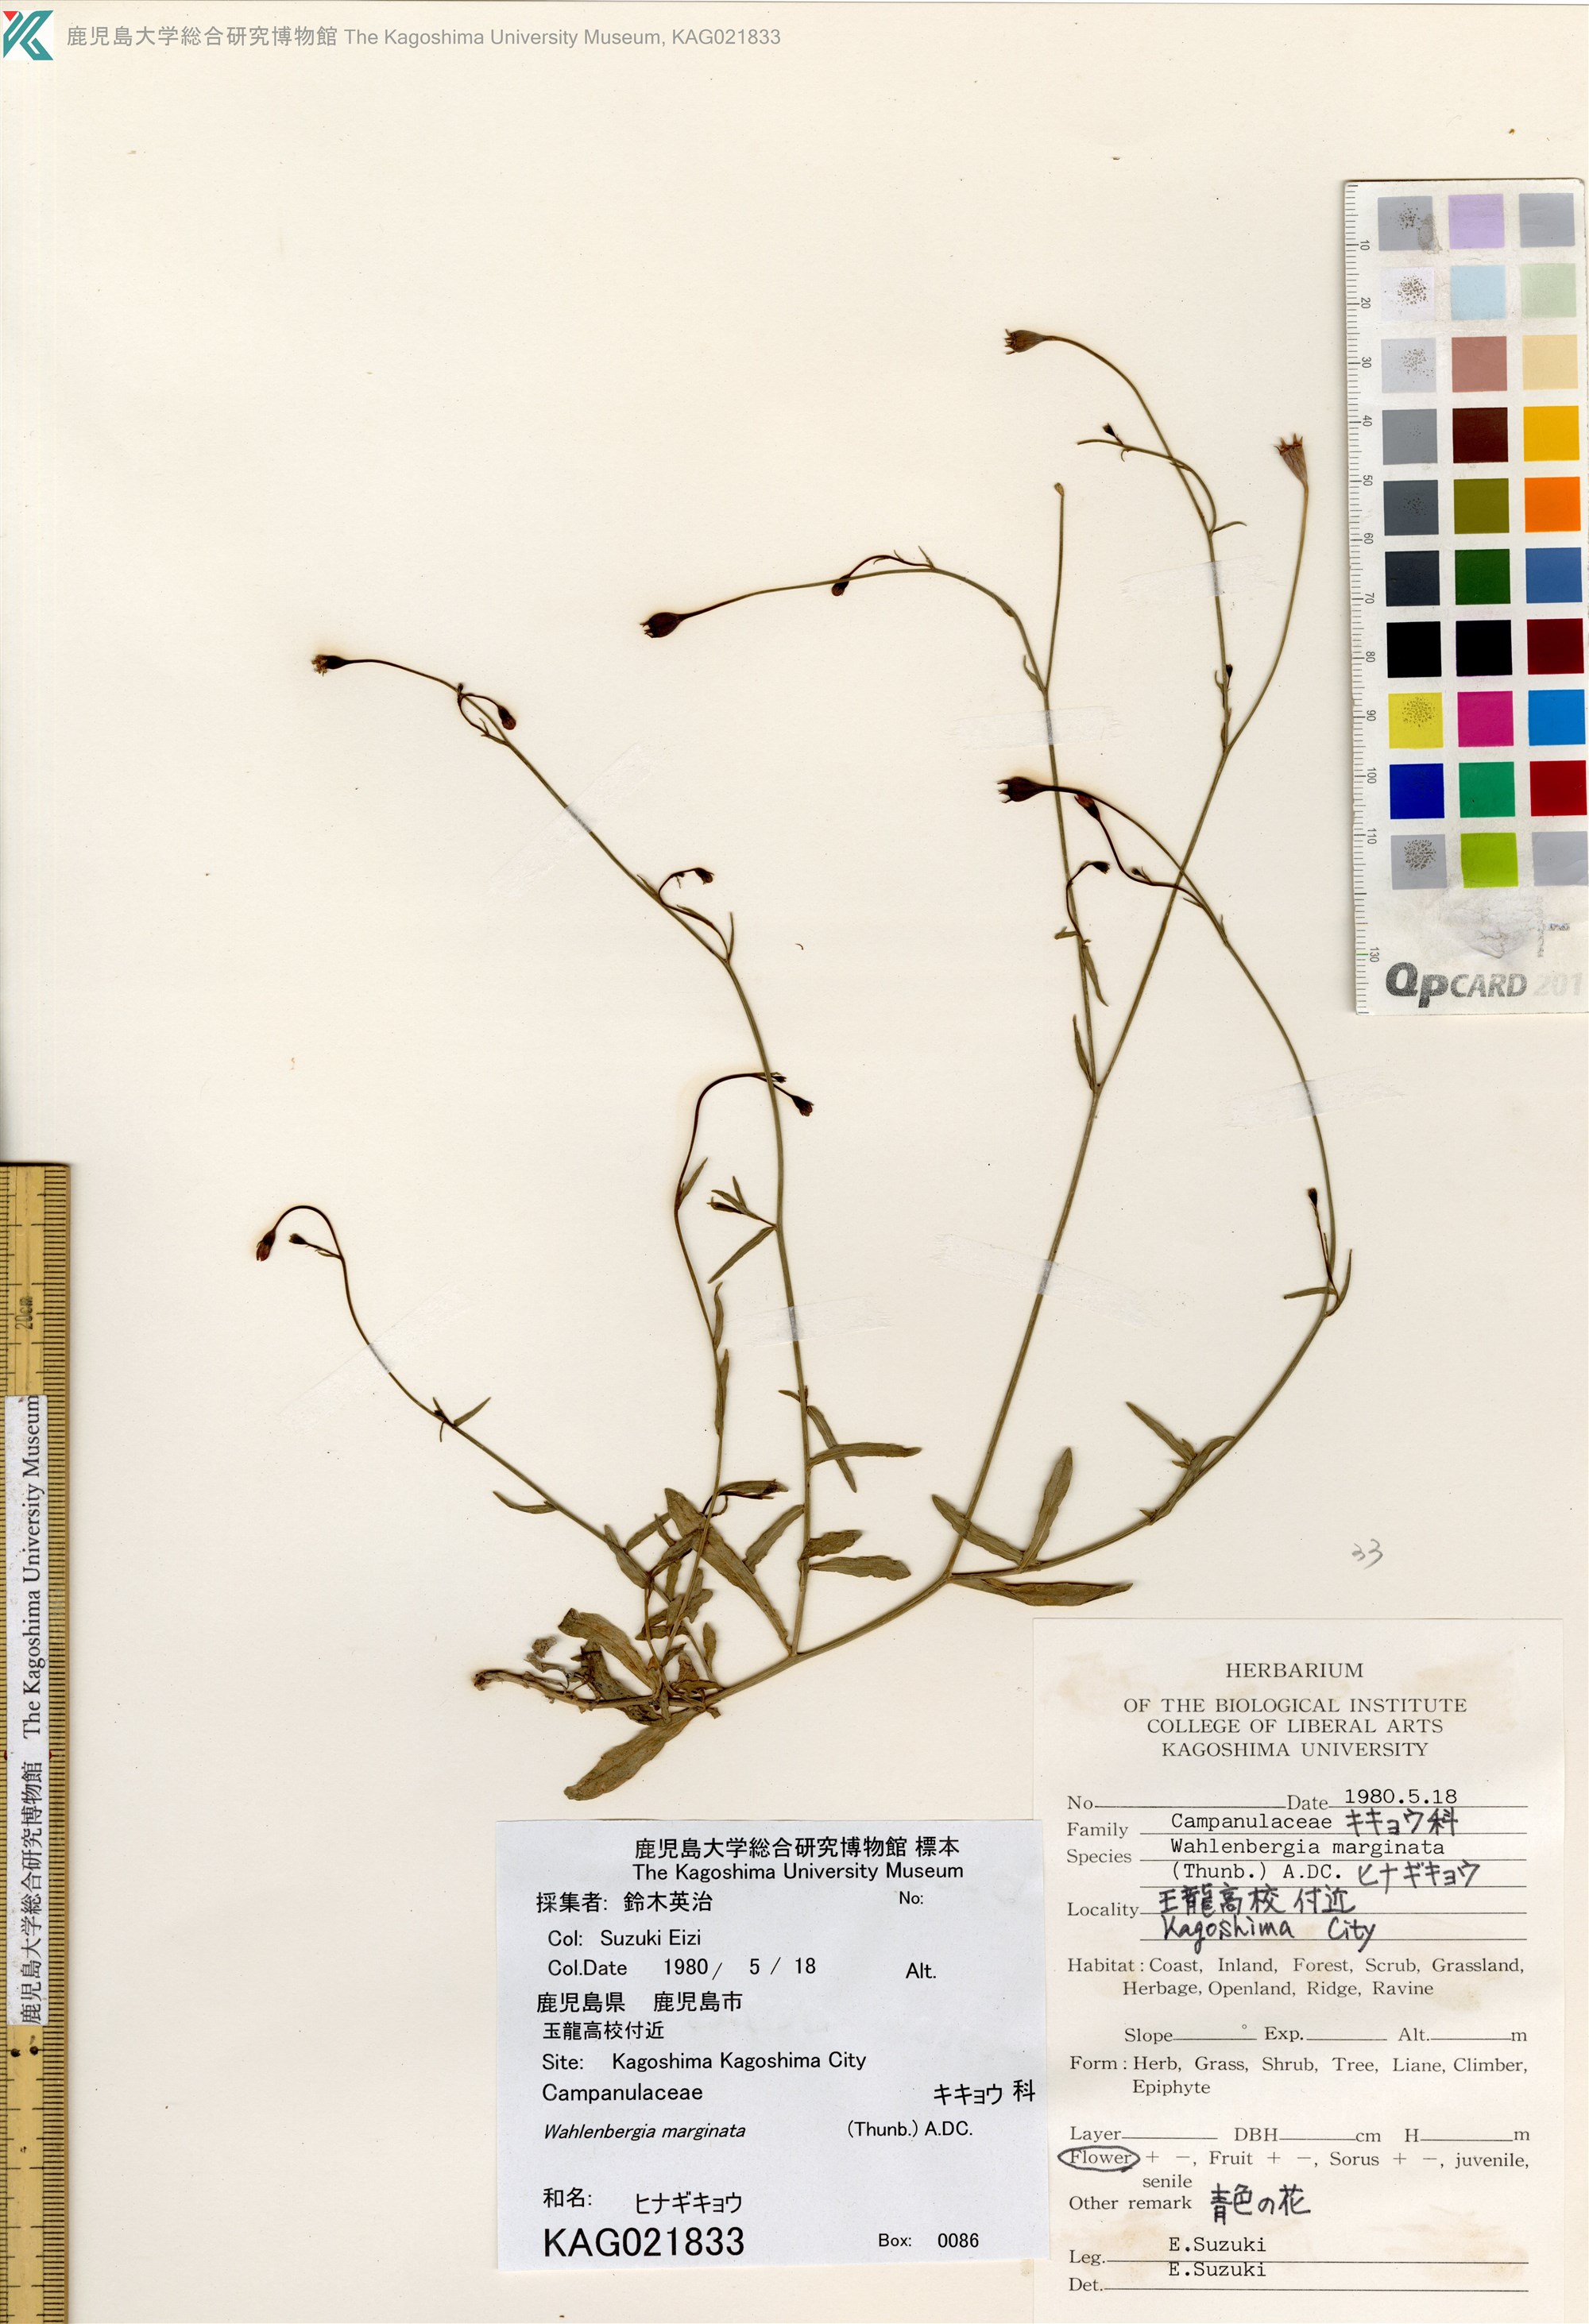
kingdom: Plantae
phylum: Tracheophyta
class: Magnoliopsida
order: Asterales
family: Campanulaceae
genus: Wahlenbergia
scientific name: Wahlenbergia marginata
